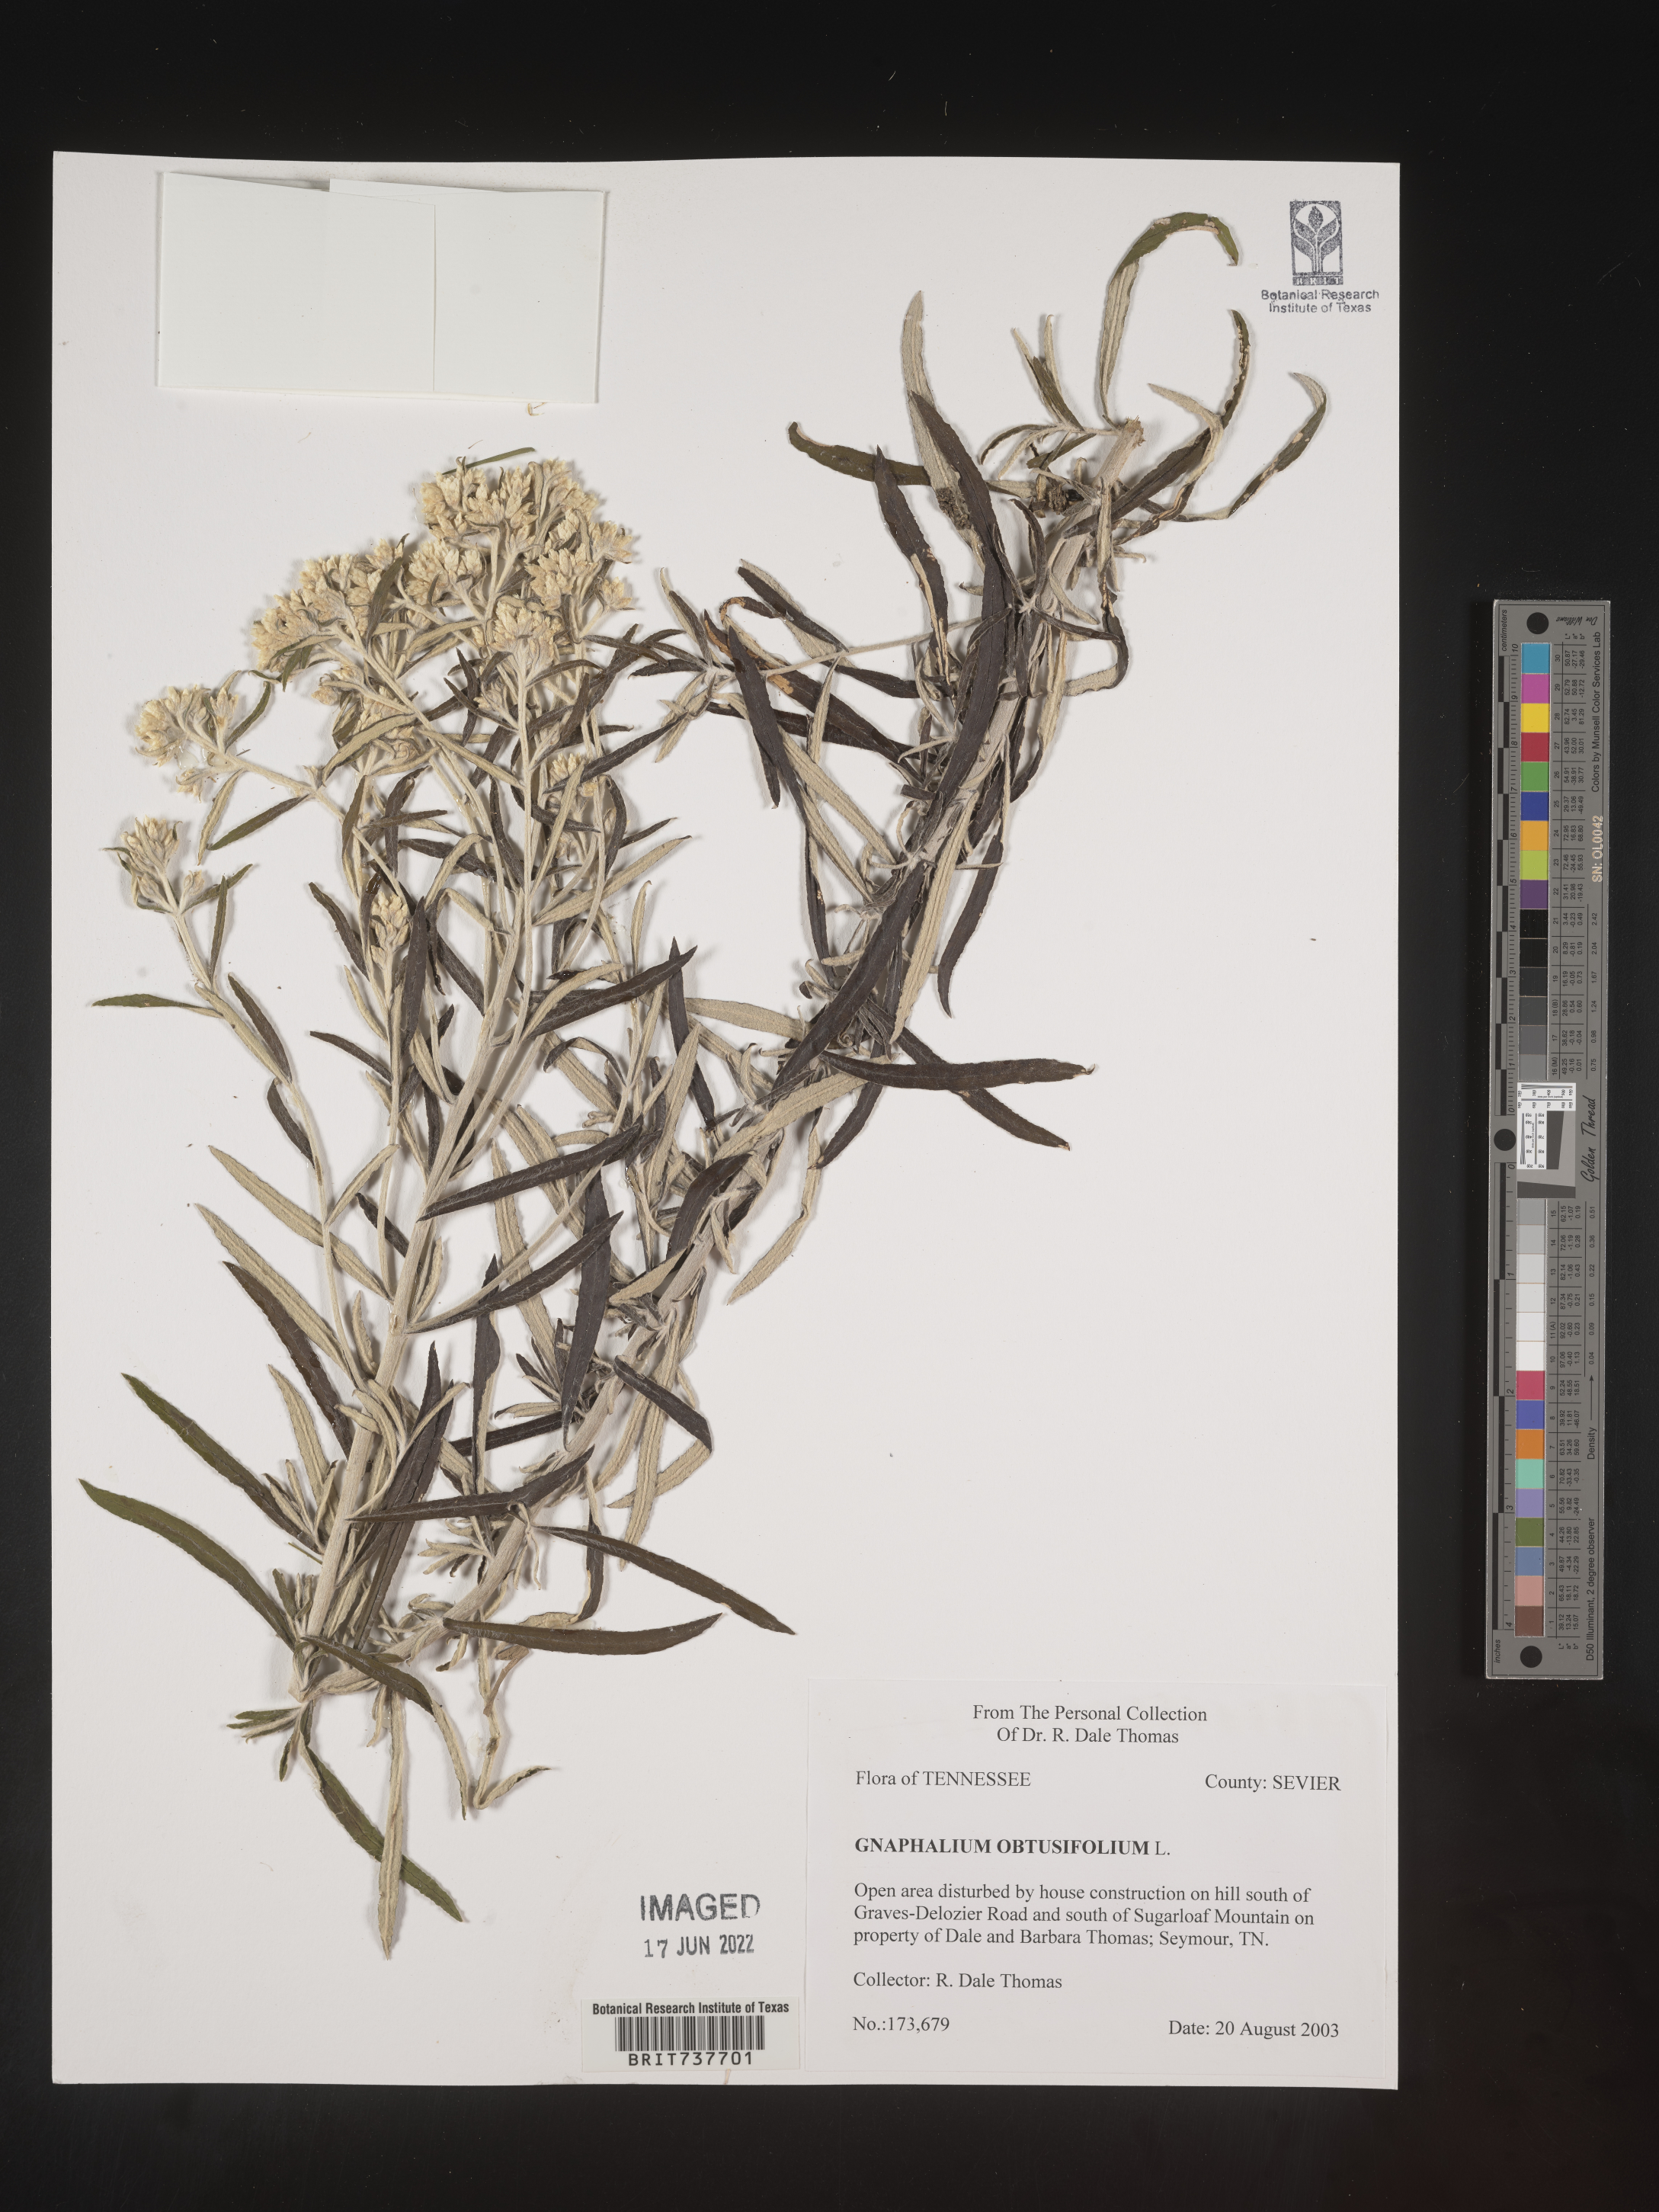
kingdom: Plantae
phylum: Tracheophyta
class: Magnoliopsida
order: Asterales
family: Asteraceae
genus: Pseudognaphalium
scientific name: Pseudognaphalium obtusifolium
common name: Eastern rabbit-tobacco
